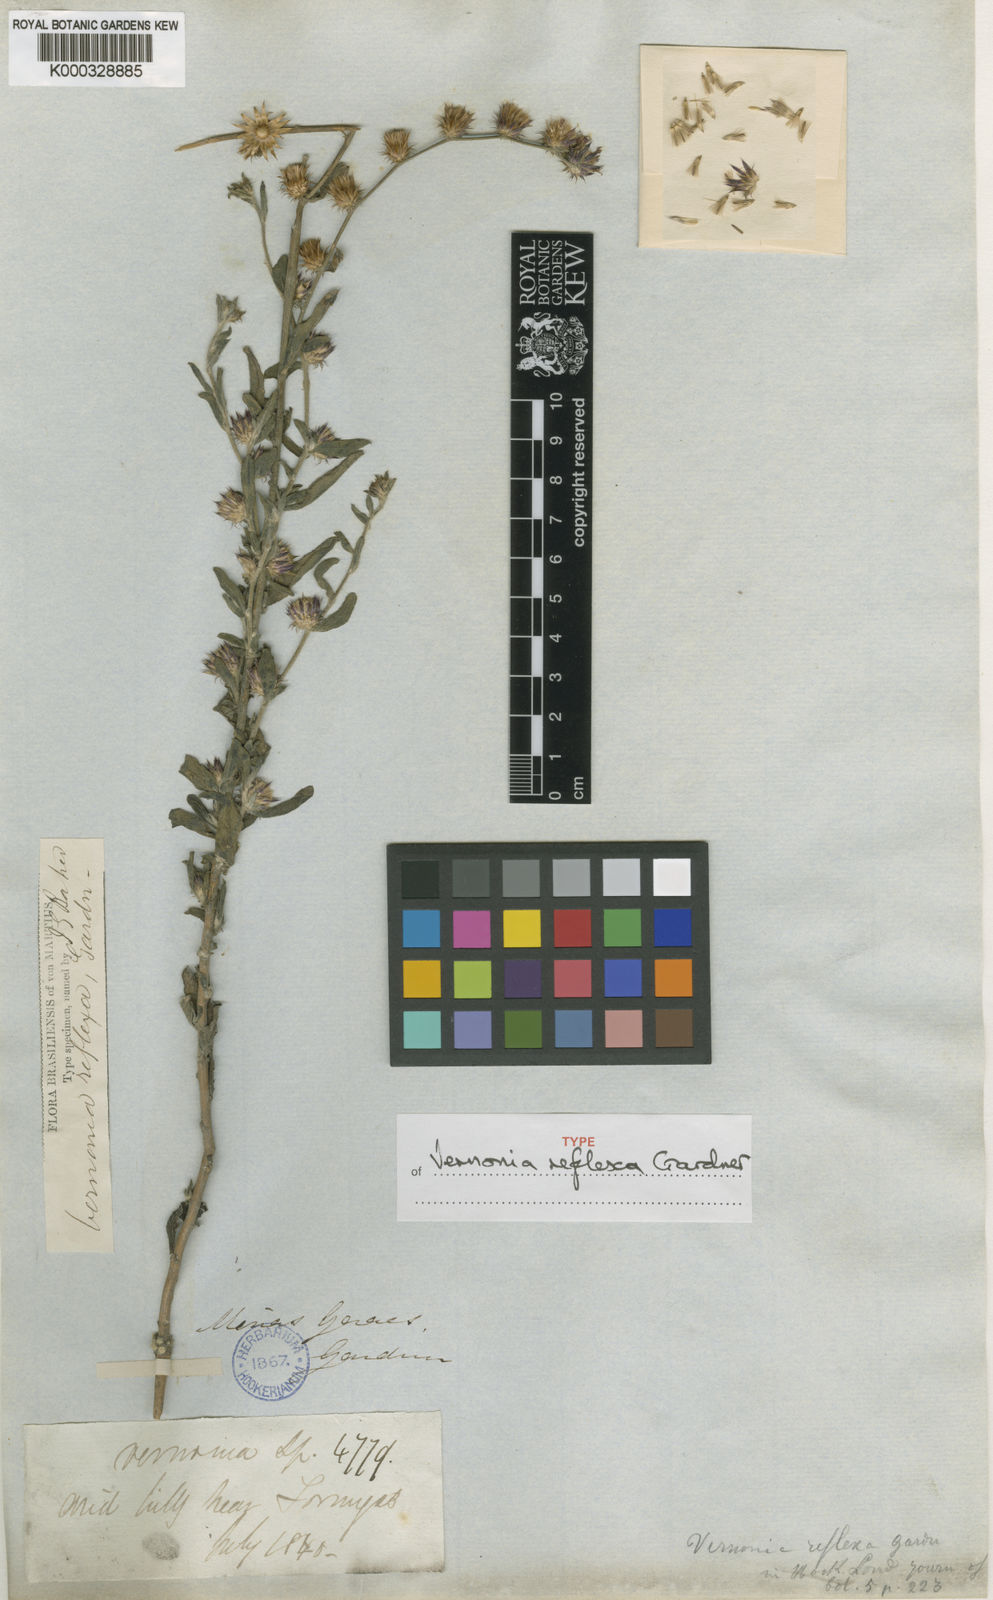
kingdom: Plantae
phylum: Tracheophyta
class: Magnoliopsida
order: Asterales
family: Asteraceae
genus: Lepidaploa
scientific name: Lepidaploa reflexa
